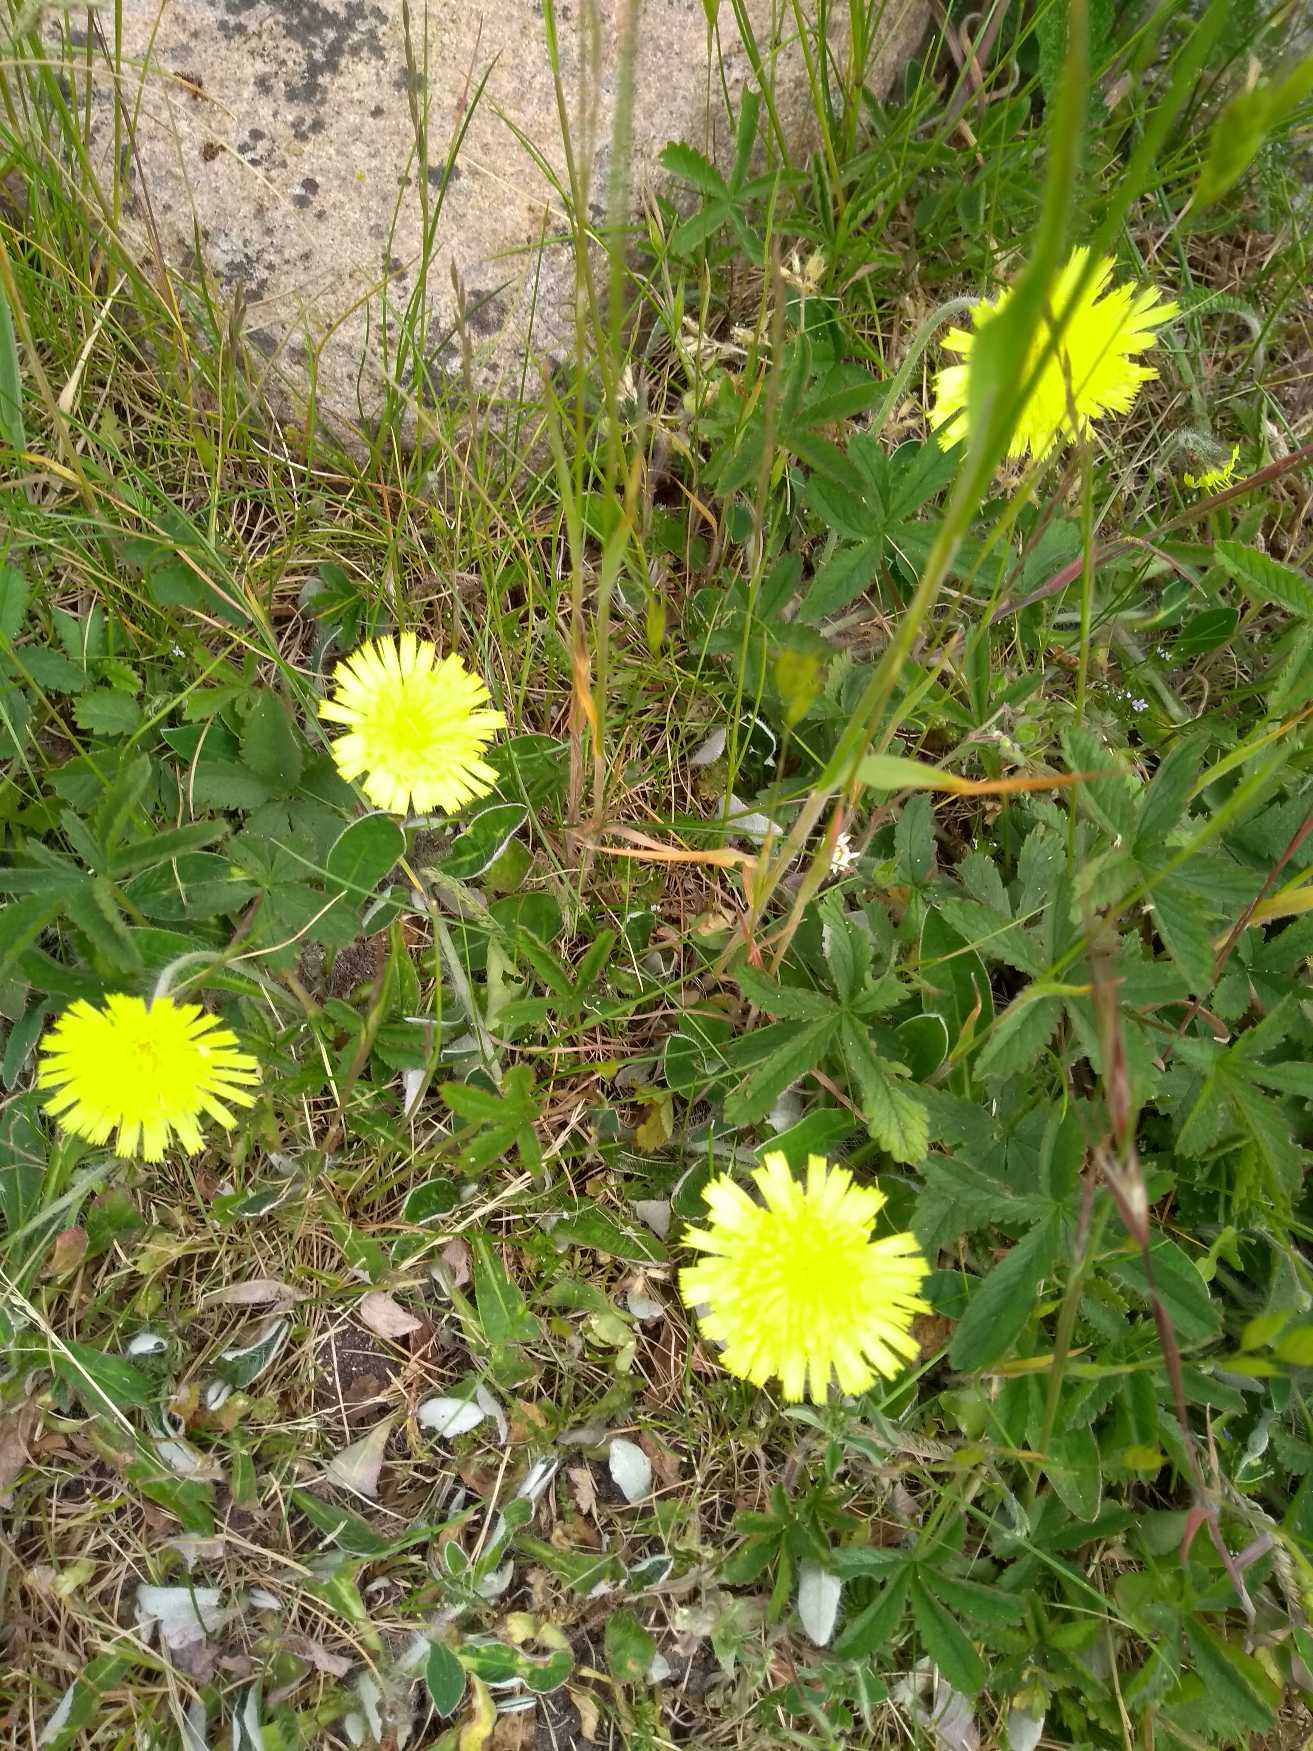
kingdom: Plantae
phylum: Tracheophyta
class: Magnoliopsida
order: Asterales
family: Asteraceae
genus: Pilosella
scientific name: Pilosella officinarum
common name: Håret høgeurt
